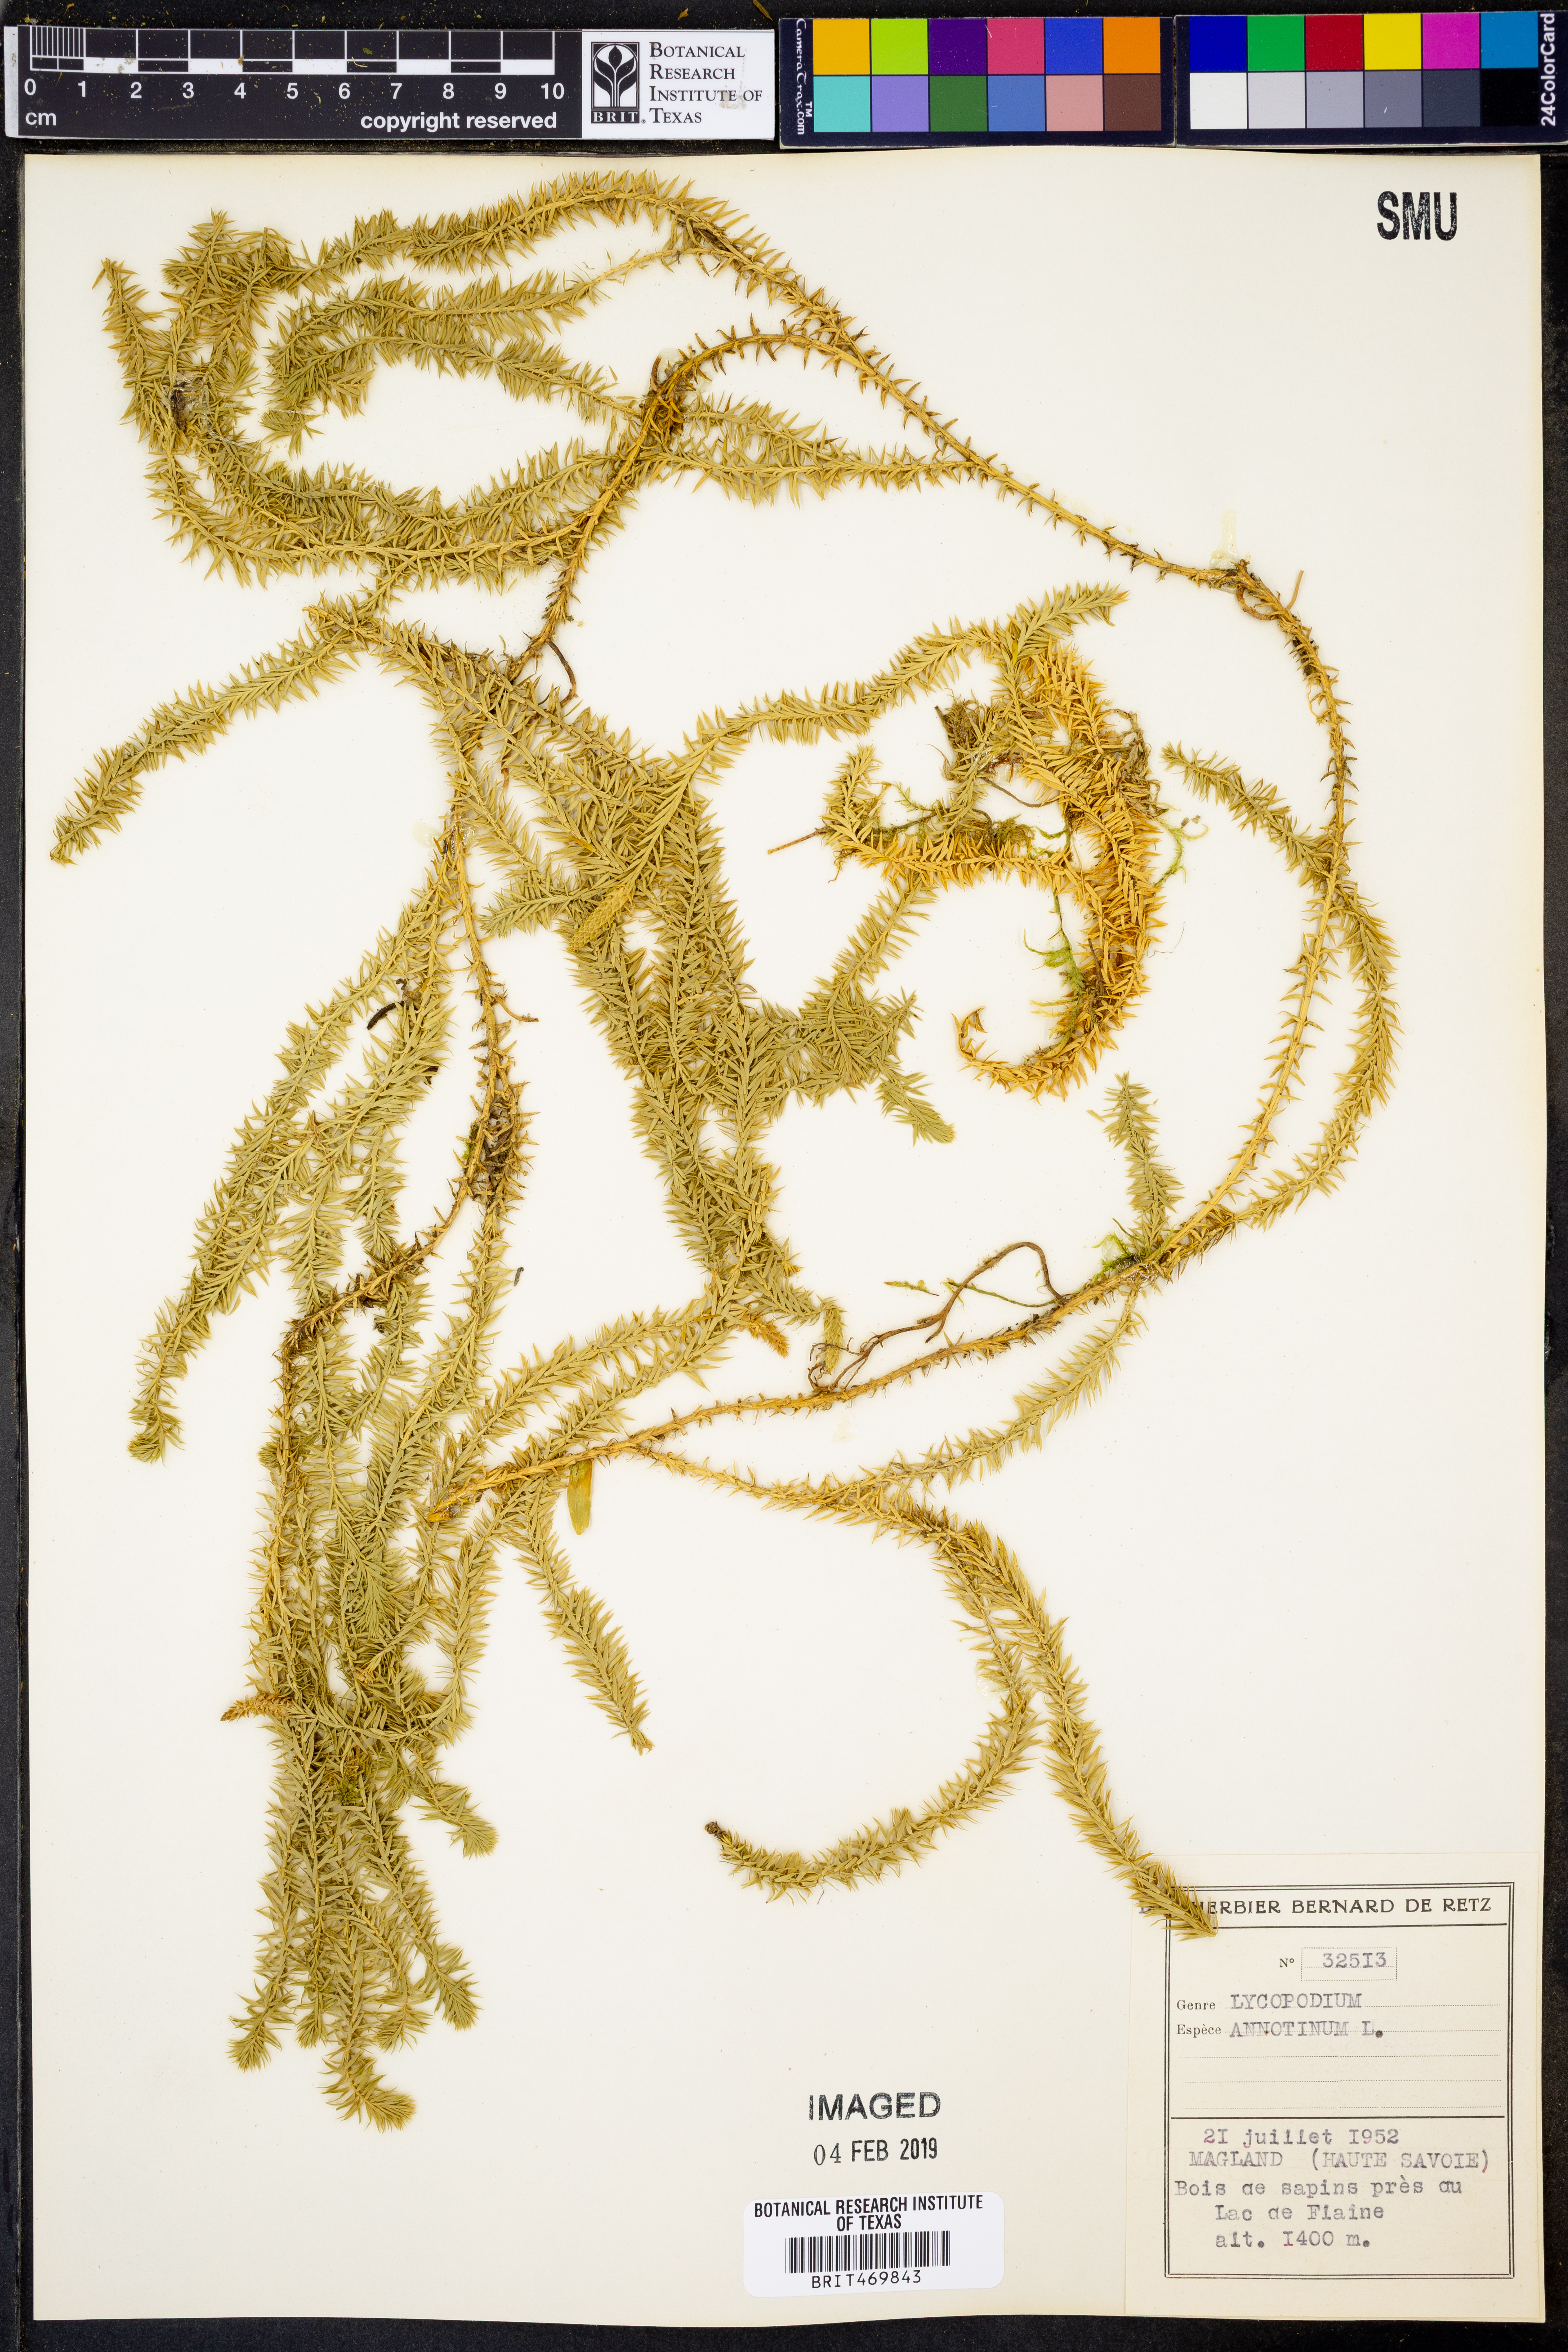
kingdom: Plantae
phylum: Tracheophyta
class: Lycopodiopsida
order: Lycopodiales
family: Lycopodiaceae
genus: Spinulum
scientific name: Spinulum annotinum
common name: Interrupted club-moss
